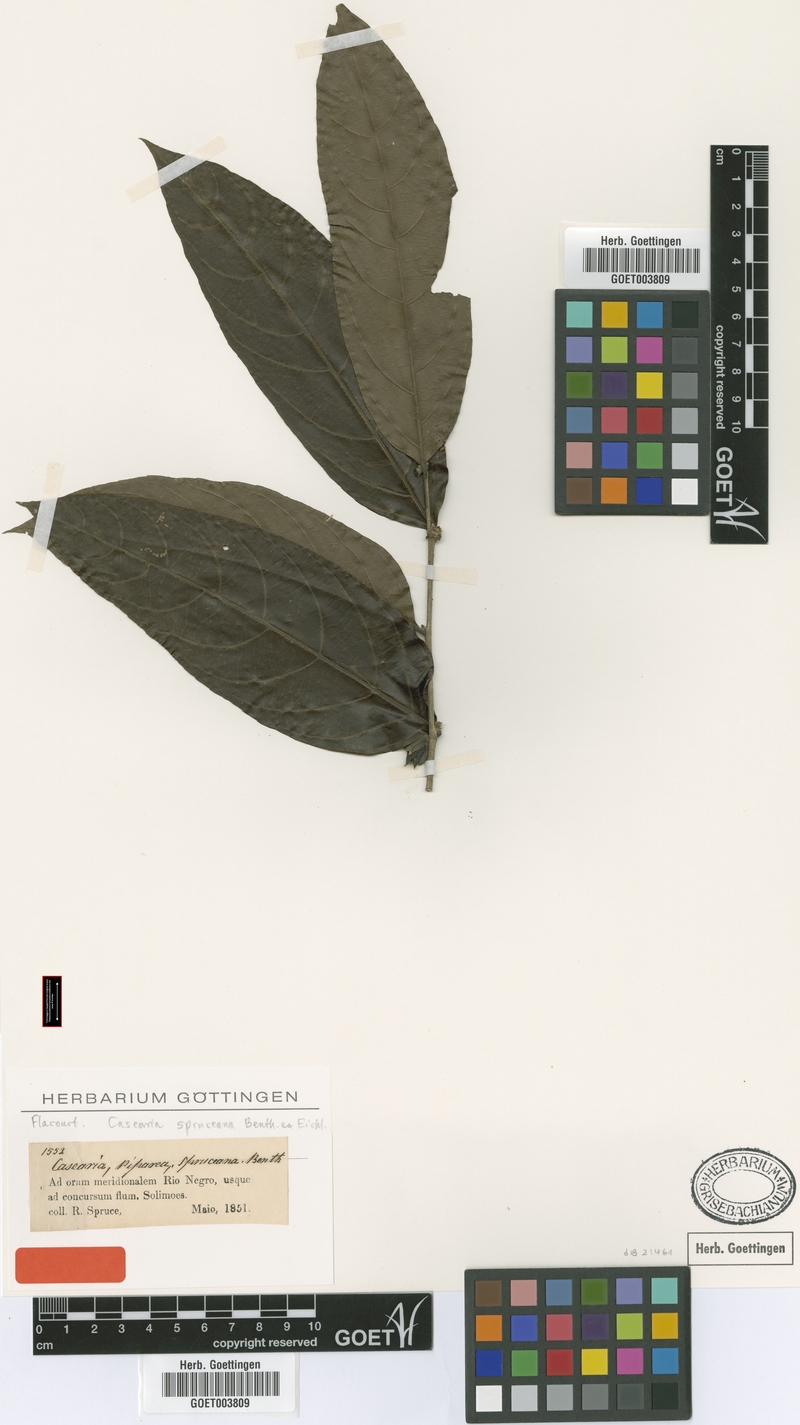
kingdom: Plantae
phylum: Tracheophyta
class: Magnoliopsida
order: Malpighiales
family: Salicaceae
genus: Piparea
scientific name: Piparea spruceana
